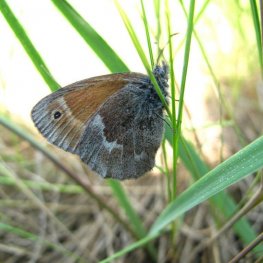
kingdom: Animalia
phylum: Arthropoda
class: Insecta
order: Lepidoptera
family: Nymphalidae
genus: Coenonympha
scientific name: Coenonympha inornata
